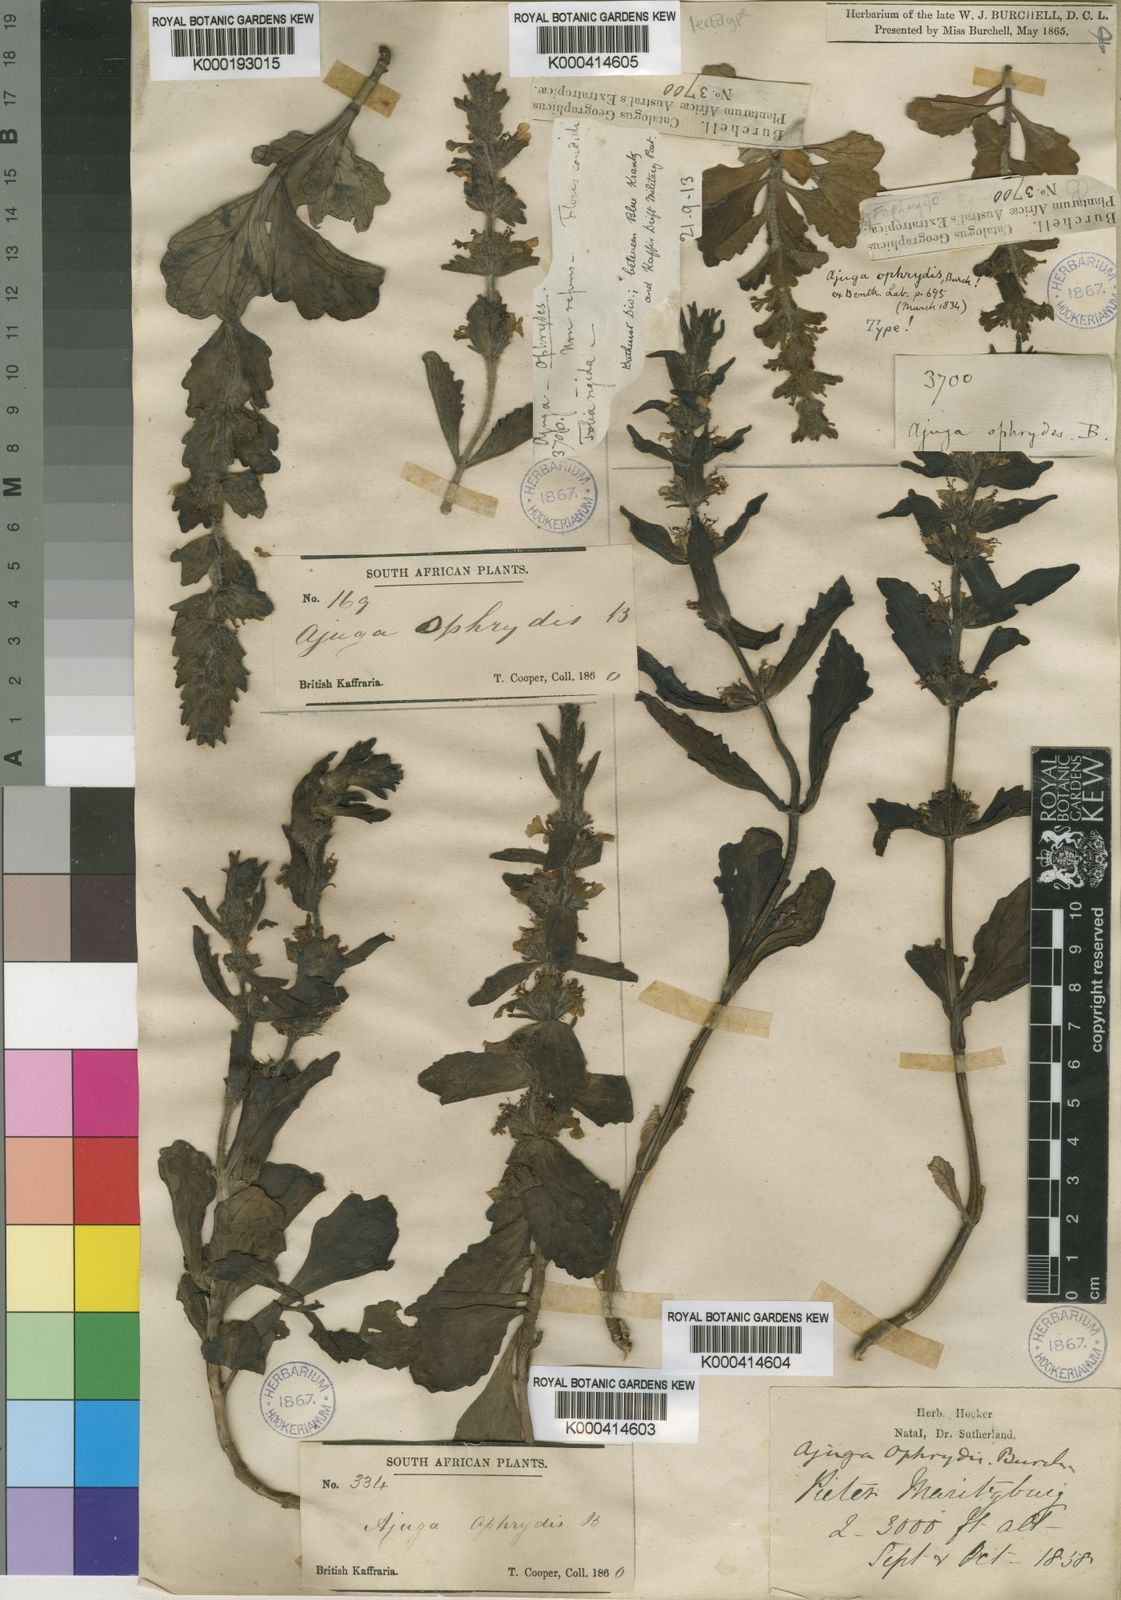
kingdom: Plantae
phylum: Tracheophyta
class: Magnoliopsida
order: Lamiales
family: Lamiaceae
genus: Ajuga
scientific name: Ajuga ophrydis
